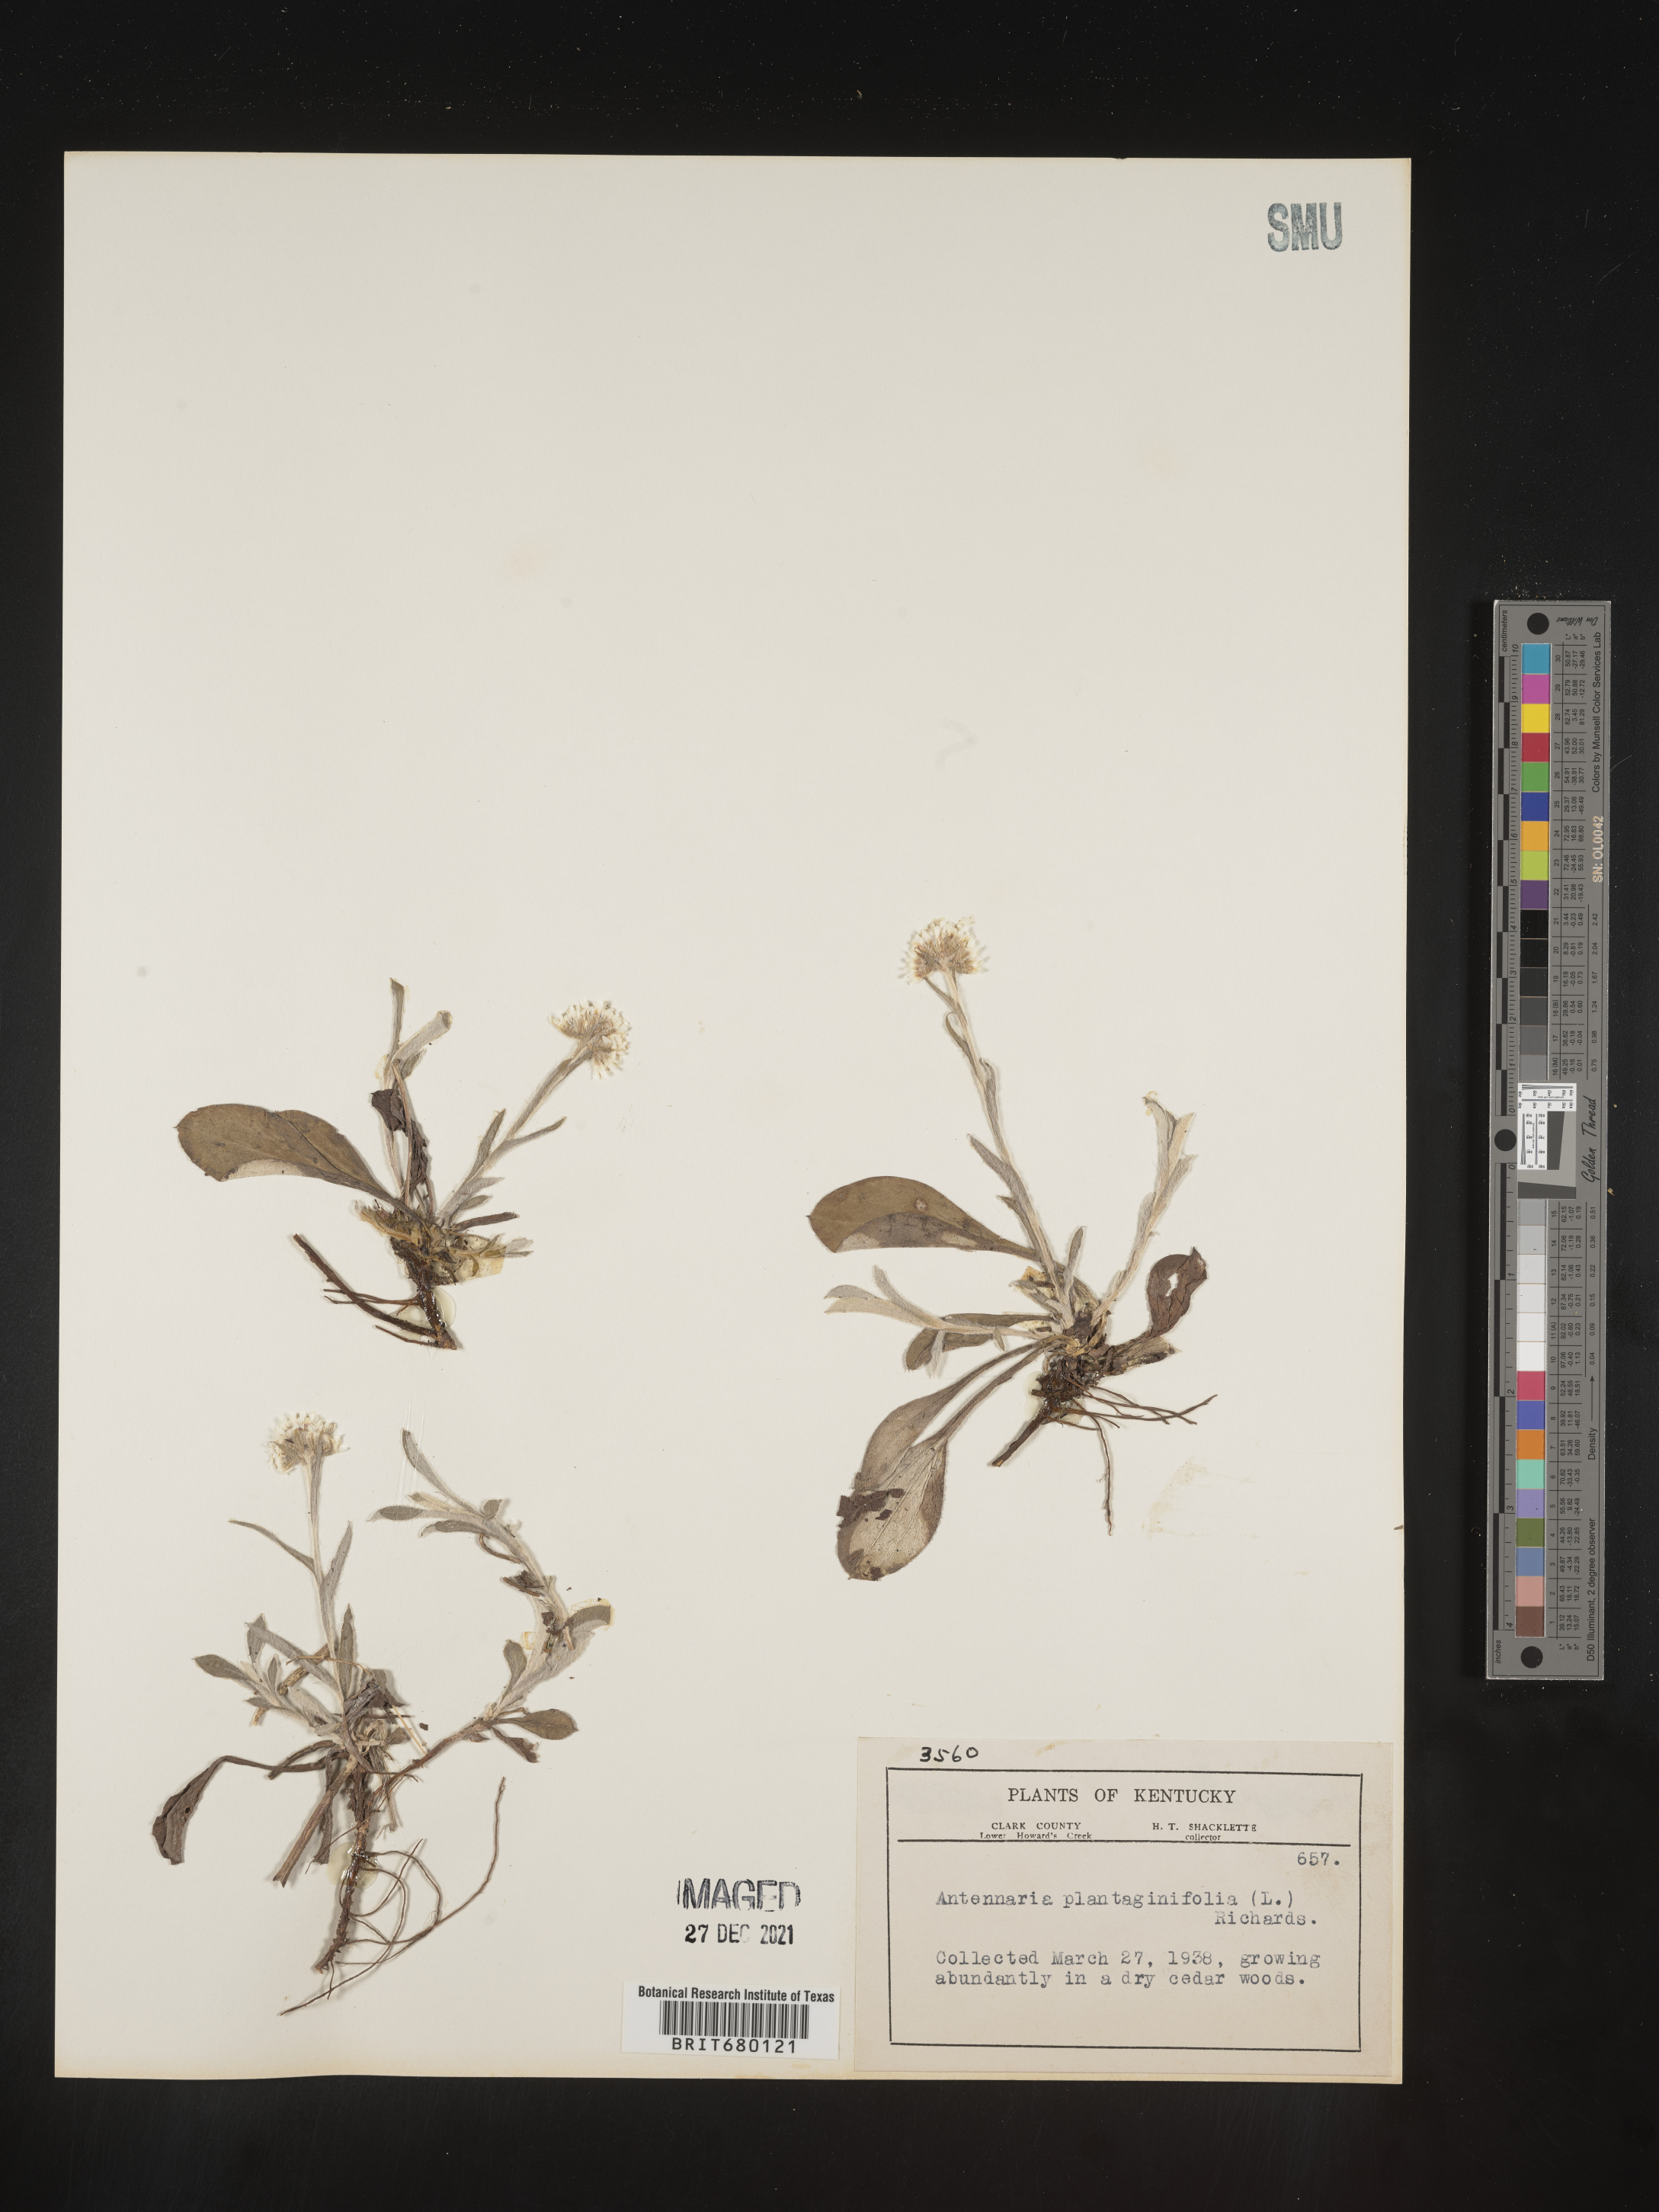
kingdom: Plantae
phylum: Tracheophyta
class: Magnoliopsida
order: Asterales
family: Asteraceae
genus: Antennaria
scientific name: Antennaria plantaginifolia
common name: Plantain-leaved pussytoes
